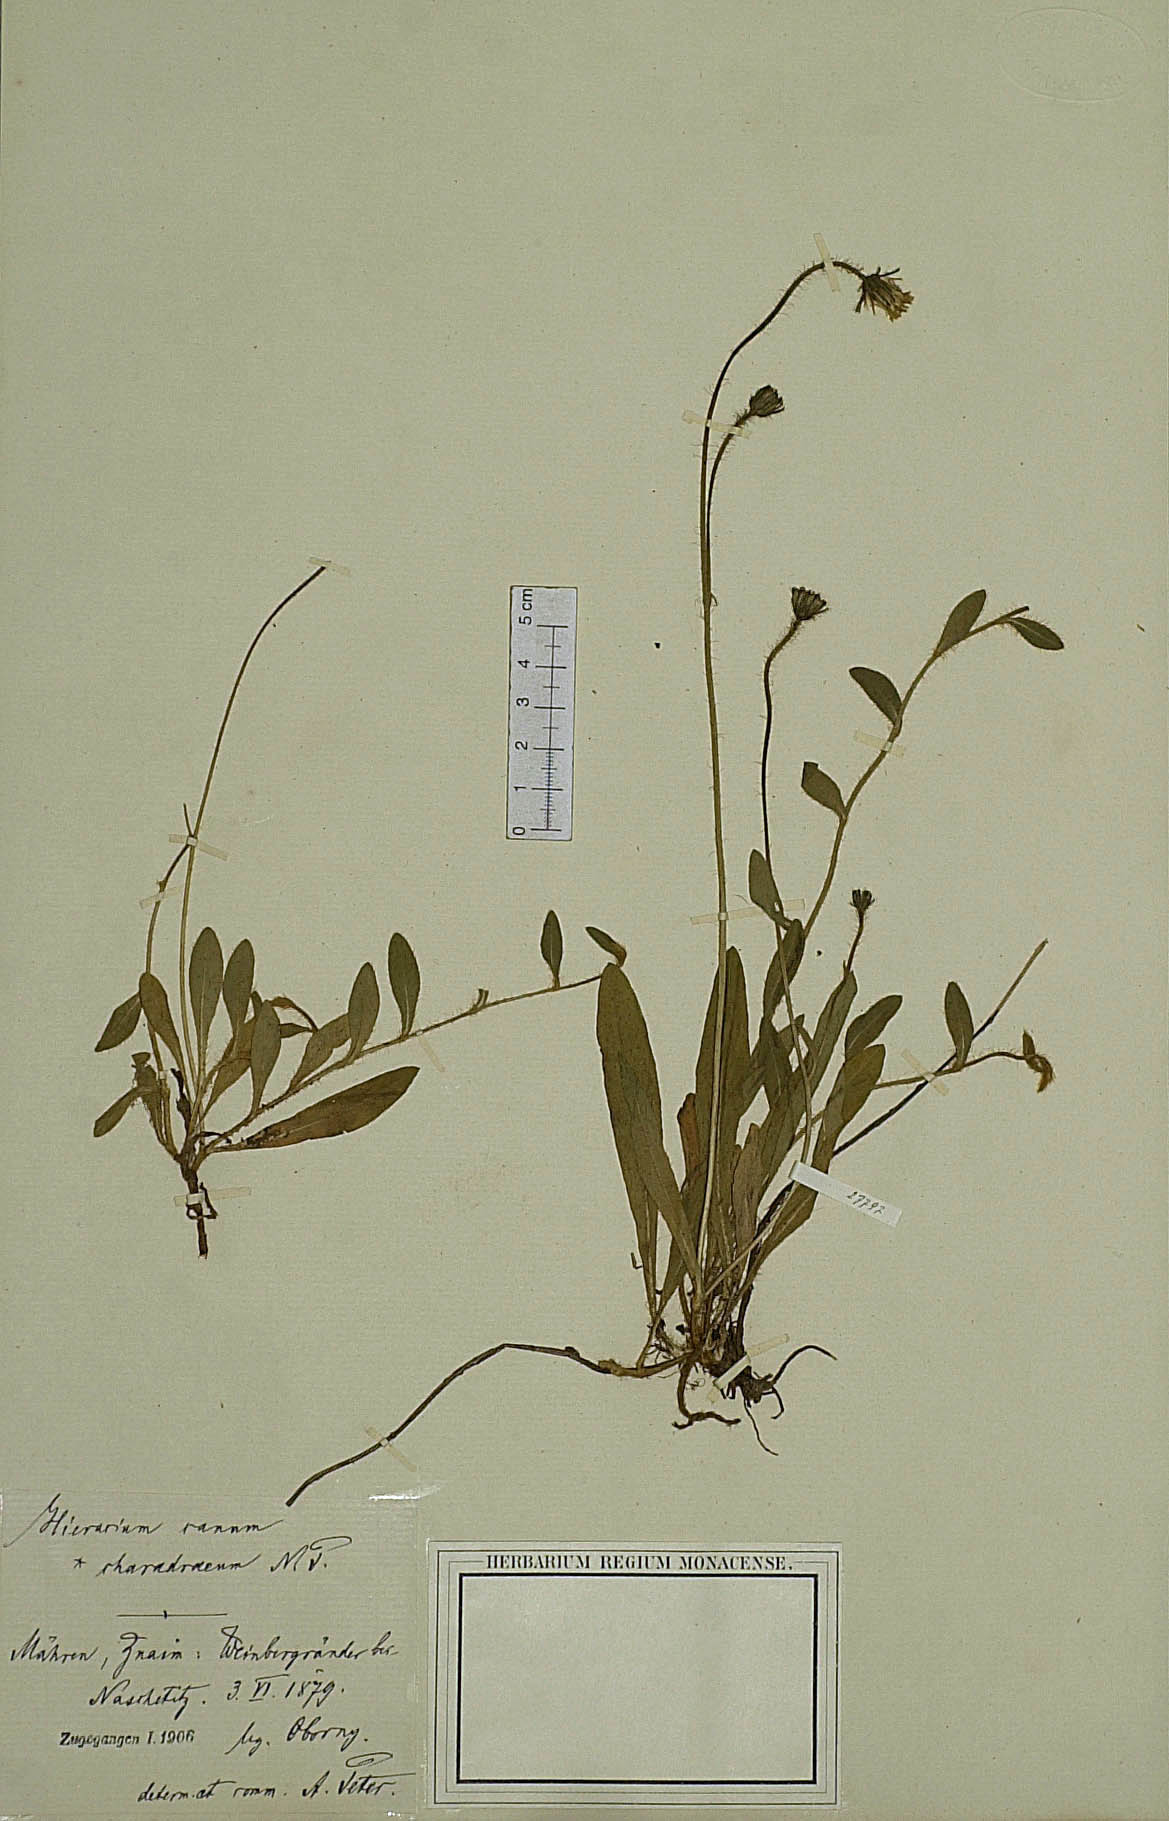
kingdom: Plantae
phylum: Tracheophyta
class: Magnoliopsida
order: Asterales
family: Asteraceae
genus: Pilosella
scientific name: Pilosella acutifolia
